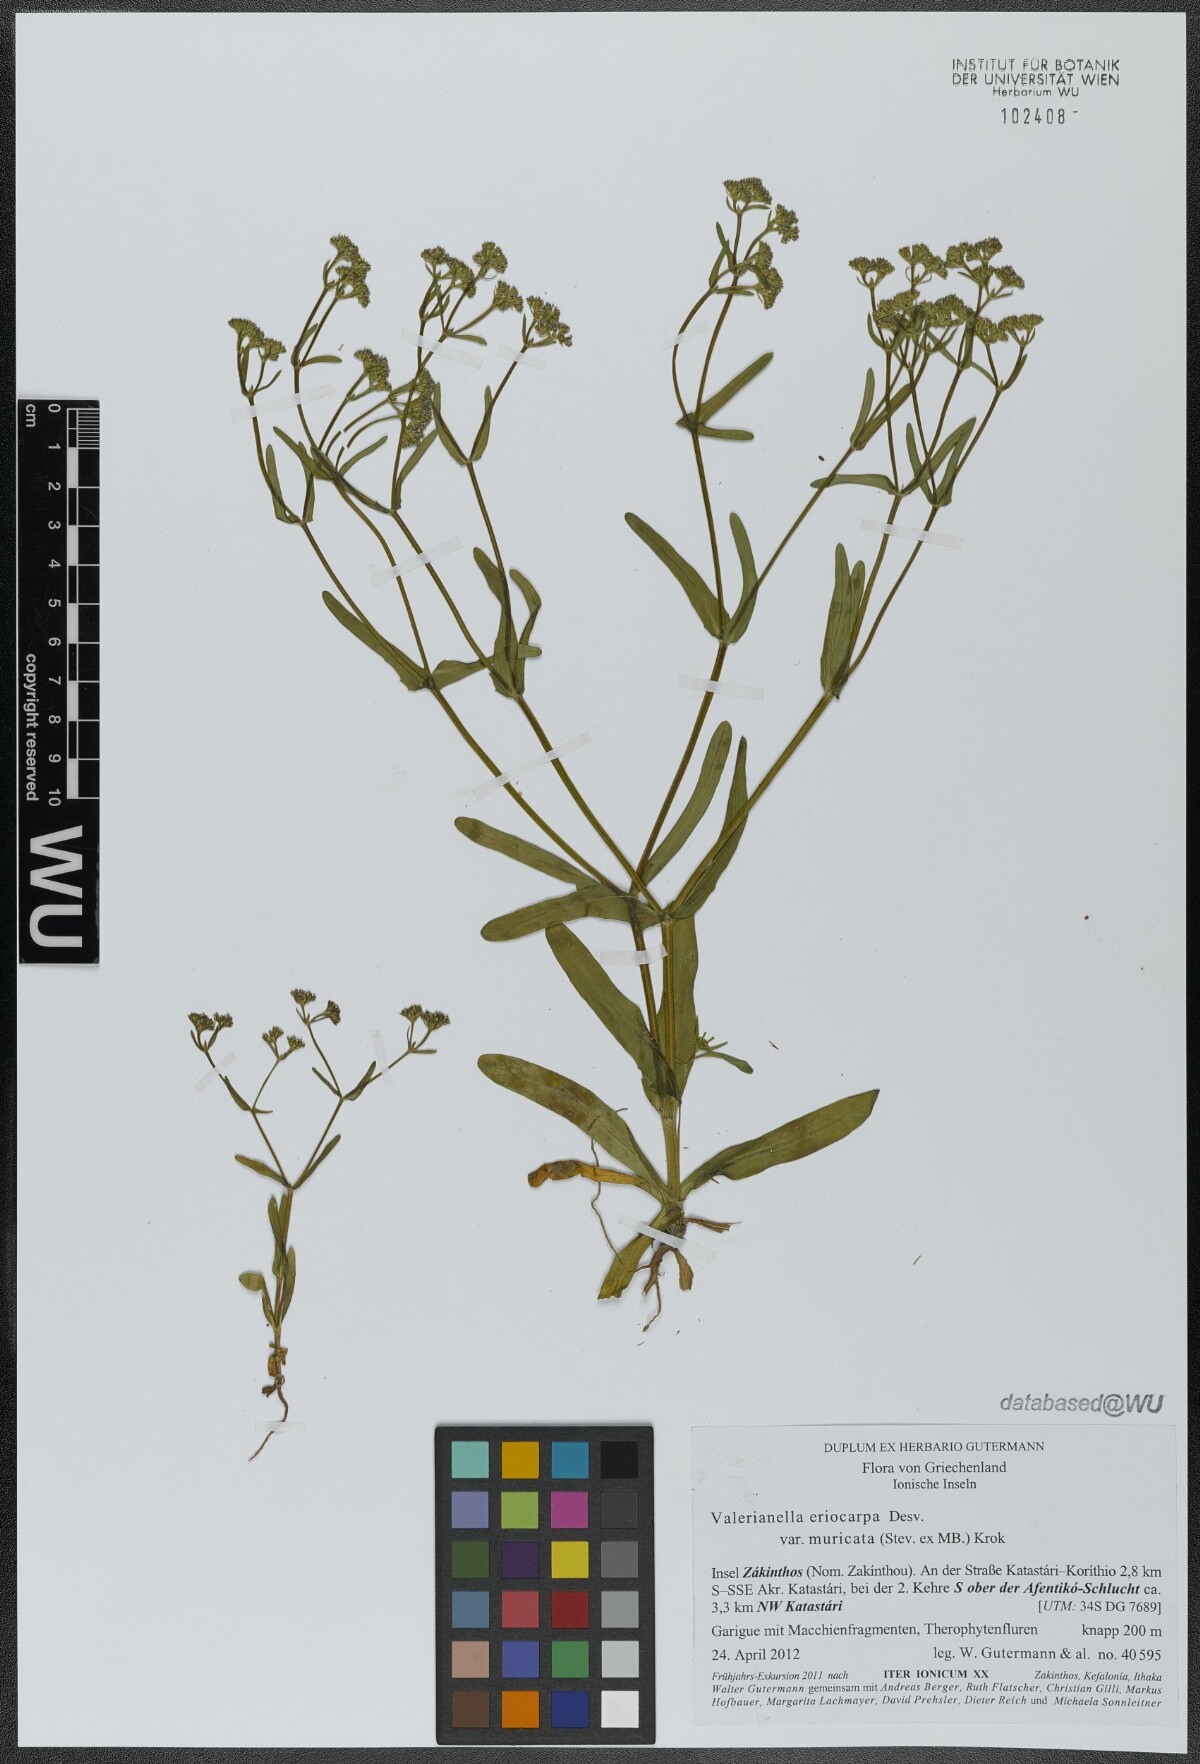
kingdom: Plantae
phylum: Tracheophyta
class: Magnoliopsida
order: Dipsacales
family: Caprifoliaceae
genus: Valerianella
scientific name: Valerianella eriocarpa
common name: Hairy-fruited cornsalad
